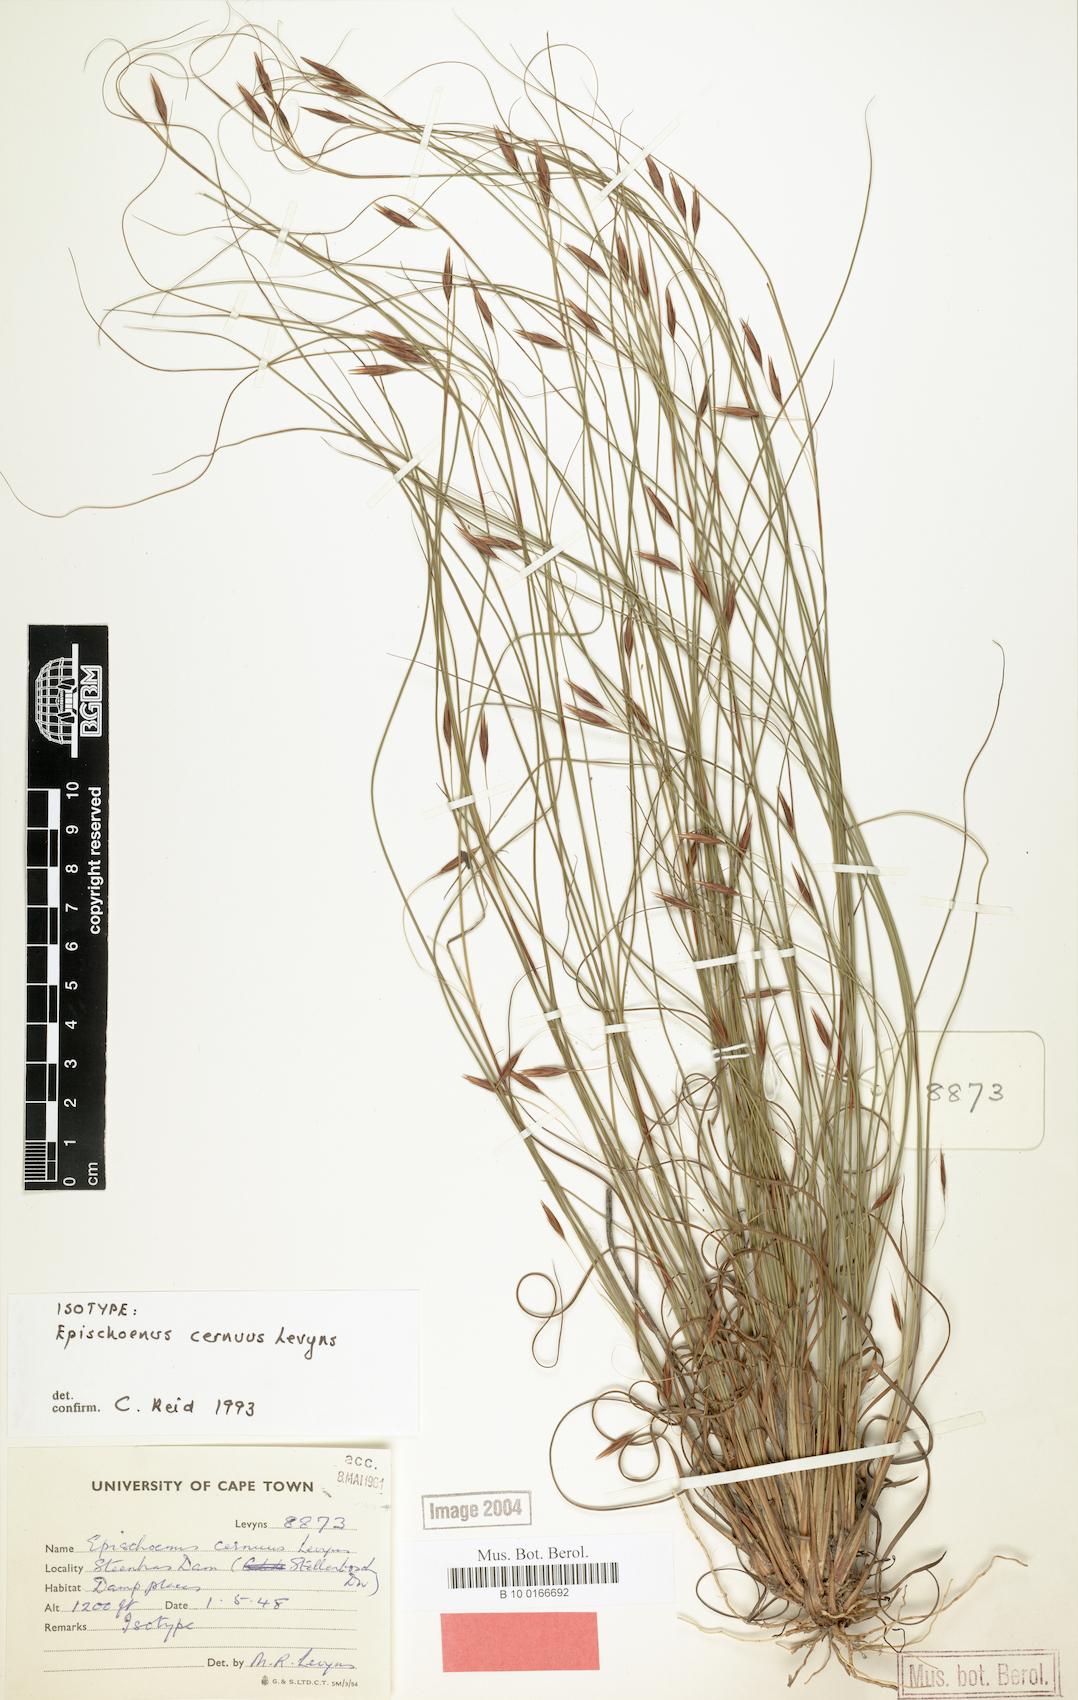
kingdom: Plantae
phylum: Tracheophyta
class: Liliopsida
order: Poales
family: Cyperaceae
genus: Tetraria
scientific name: Tetraria cernua
